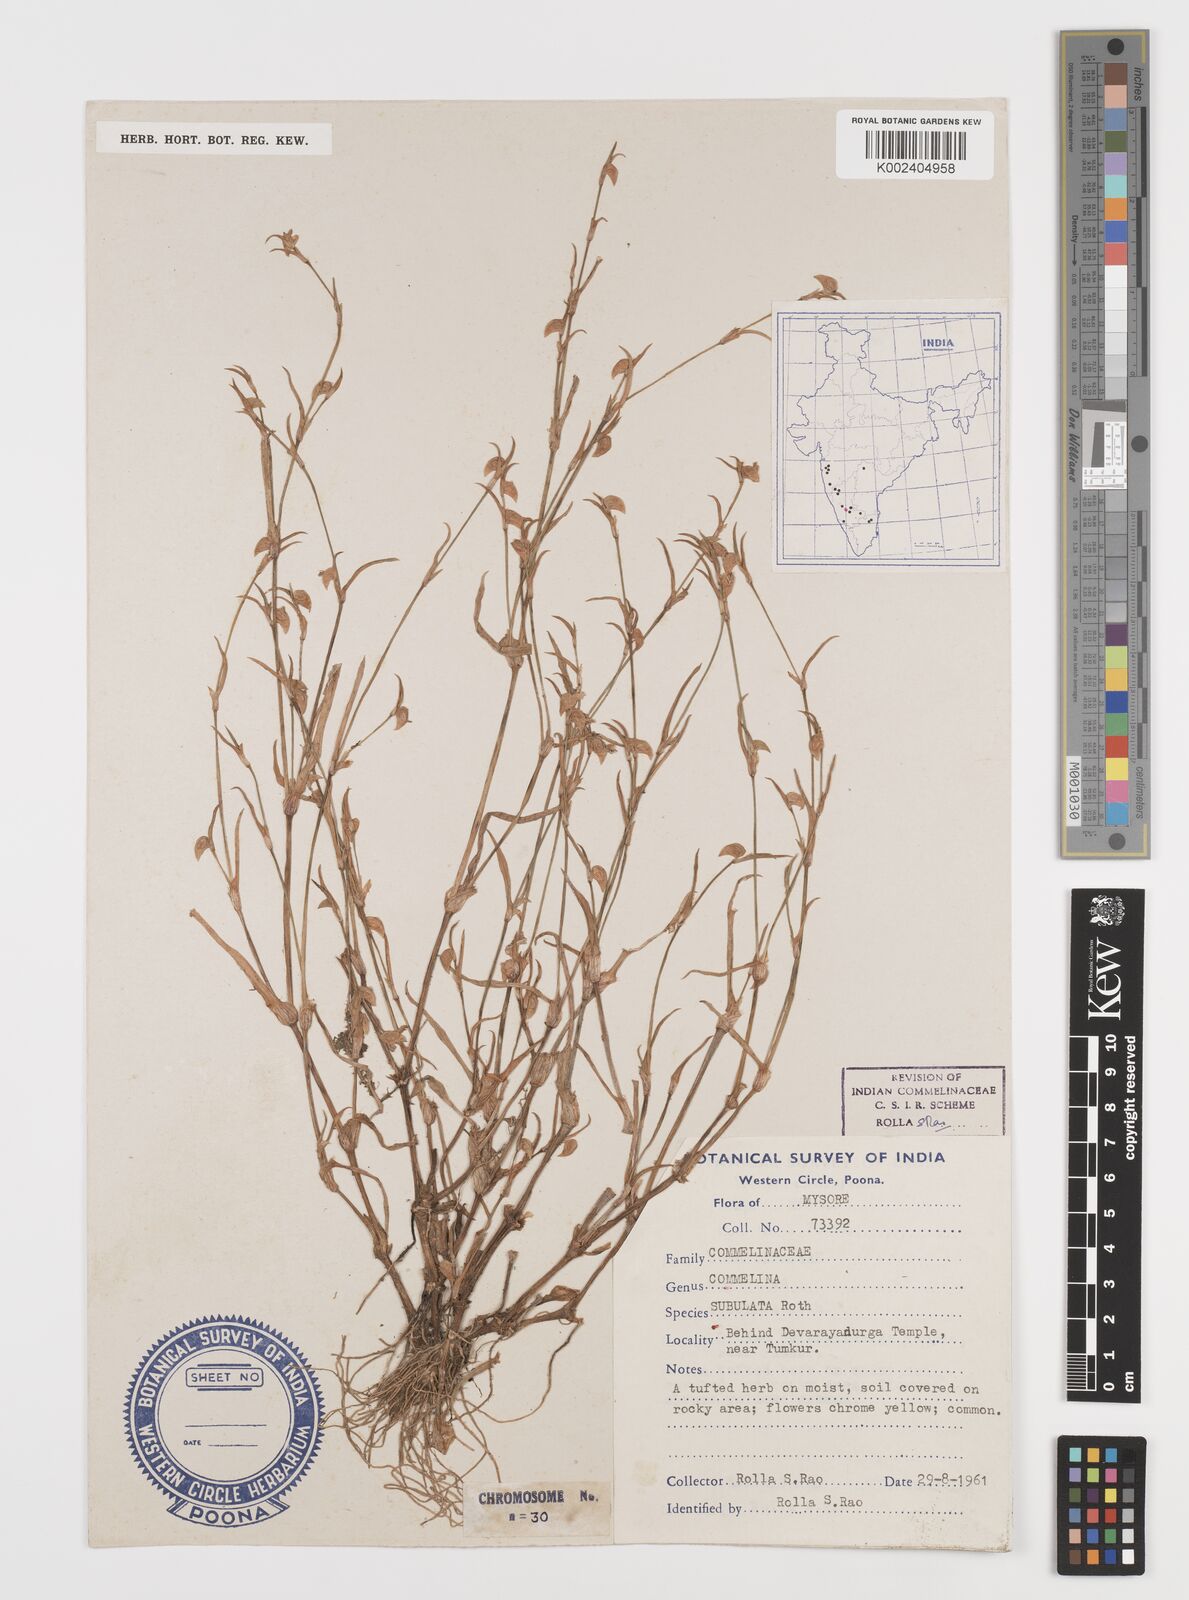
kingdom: Plantae
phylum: Tracheophyta
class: Liliopsida
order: Commelinales
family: Commelinaceae
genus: Commelina
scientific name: Commelina subulata
